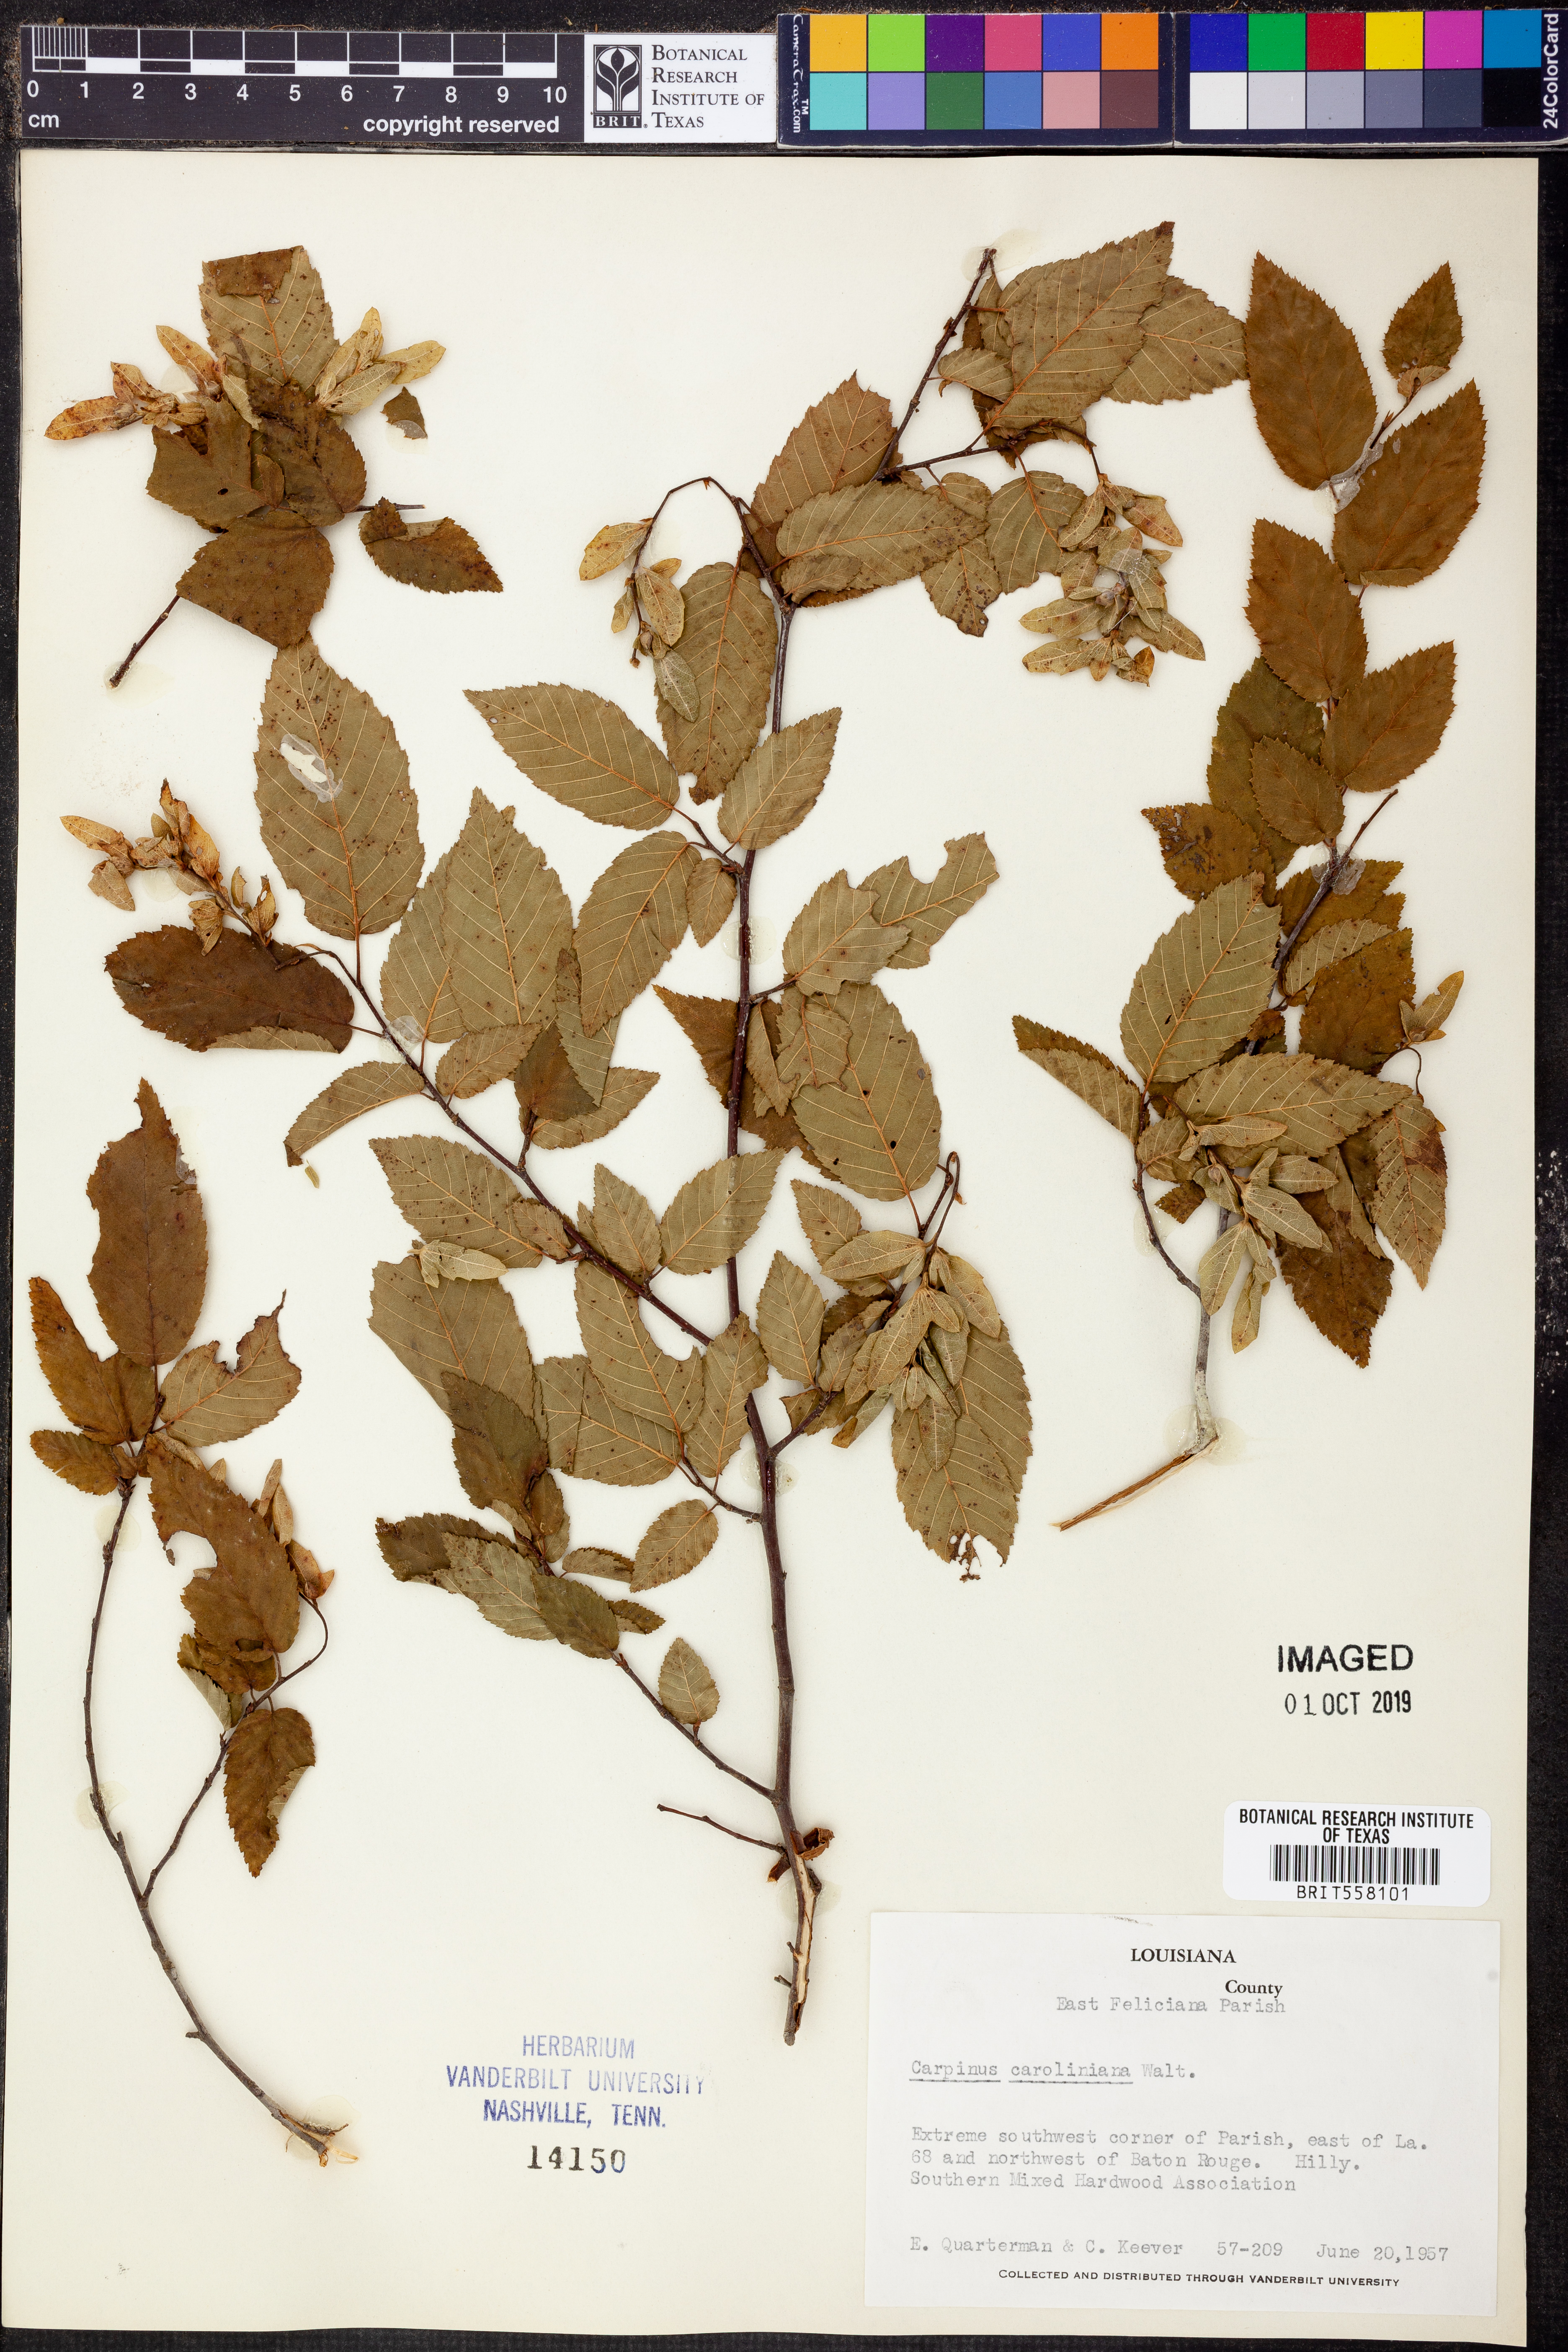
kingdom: Plantae
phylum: Tracheophyta
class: Magnoliopsida
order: Fagales
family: Betulaceae
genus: Carpinus
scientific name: Carpinus caroliniana
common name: American hornbeam
